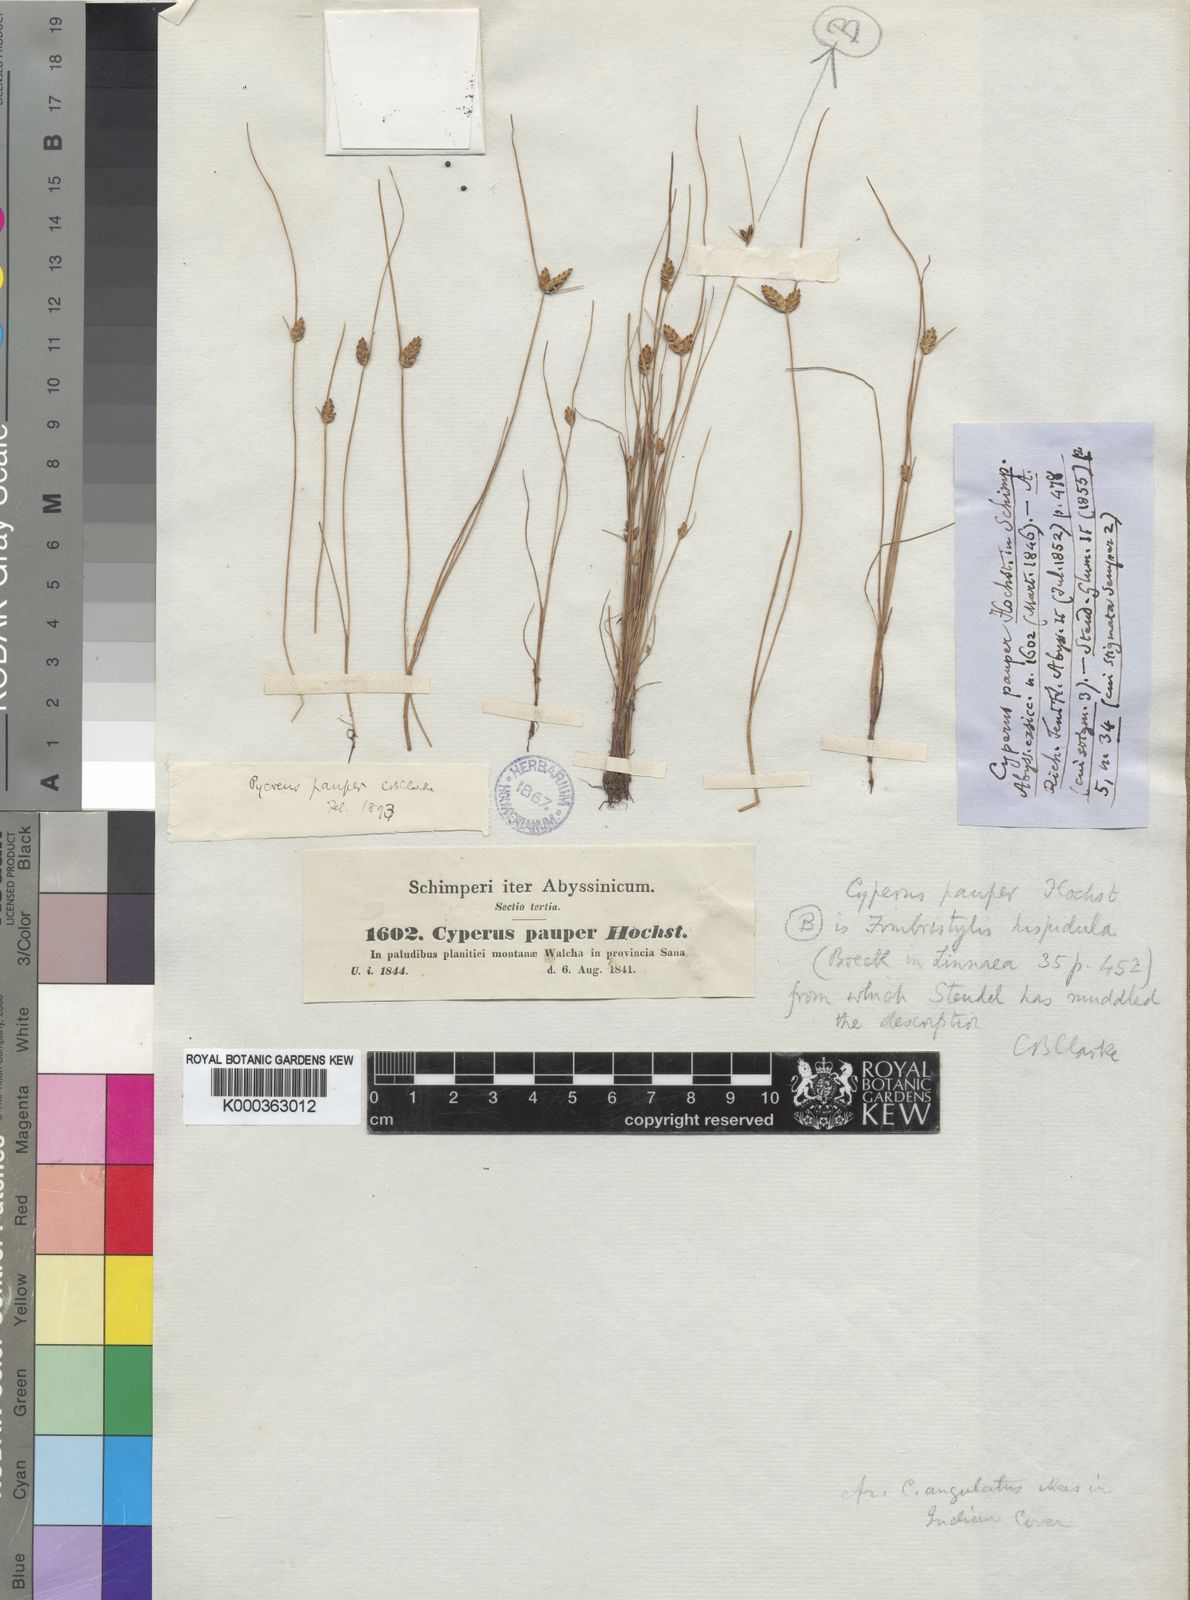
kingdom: Plantae
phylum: Tracheophyta
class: Liliopsida
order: Poales
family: Cyperaceae
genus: Cyperus
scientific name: Cyperus pauper
